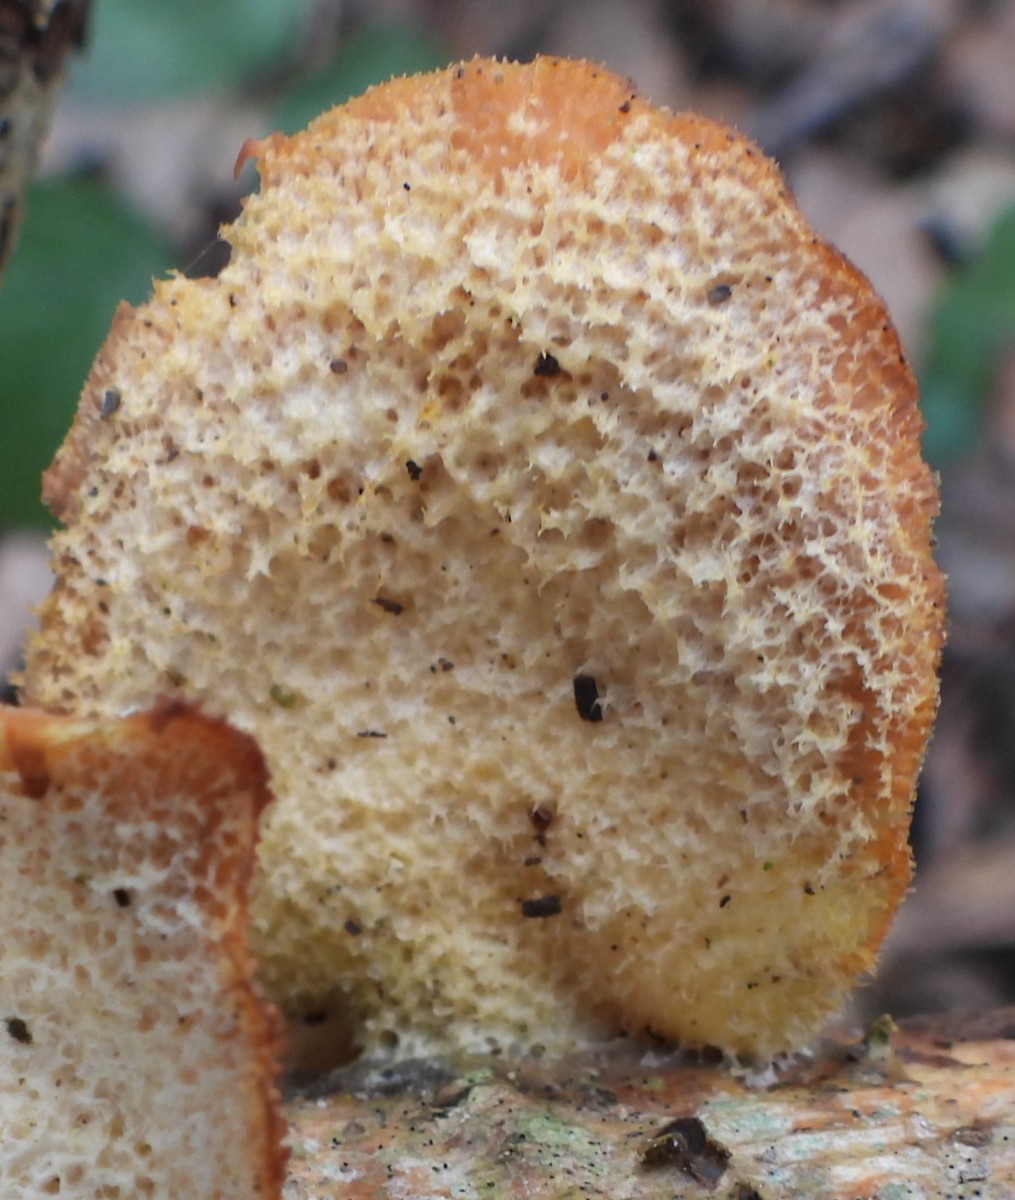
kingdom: Fungi
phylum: Basidiomycota
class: Agaricomycetes
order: Agaricales
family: Phyllotopsidaceae
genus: Phyllotopsis
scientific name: Phyllotopsis nidulans
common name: okkerblad
